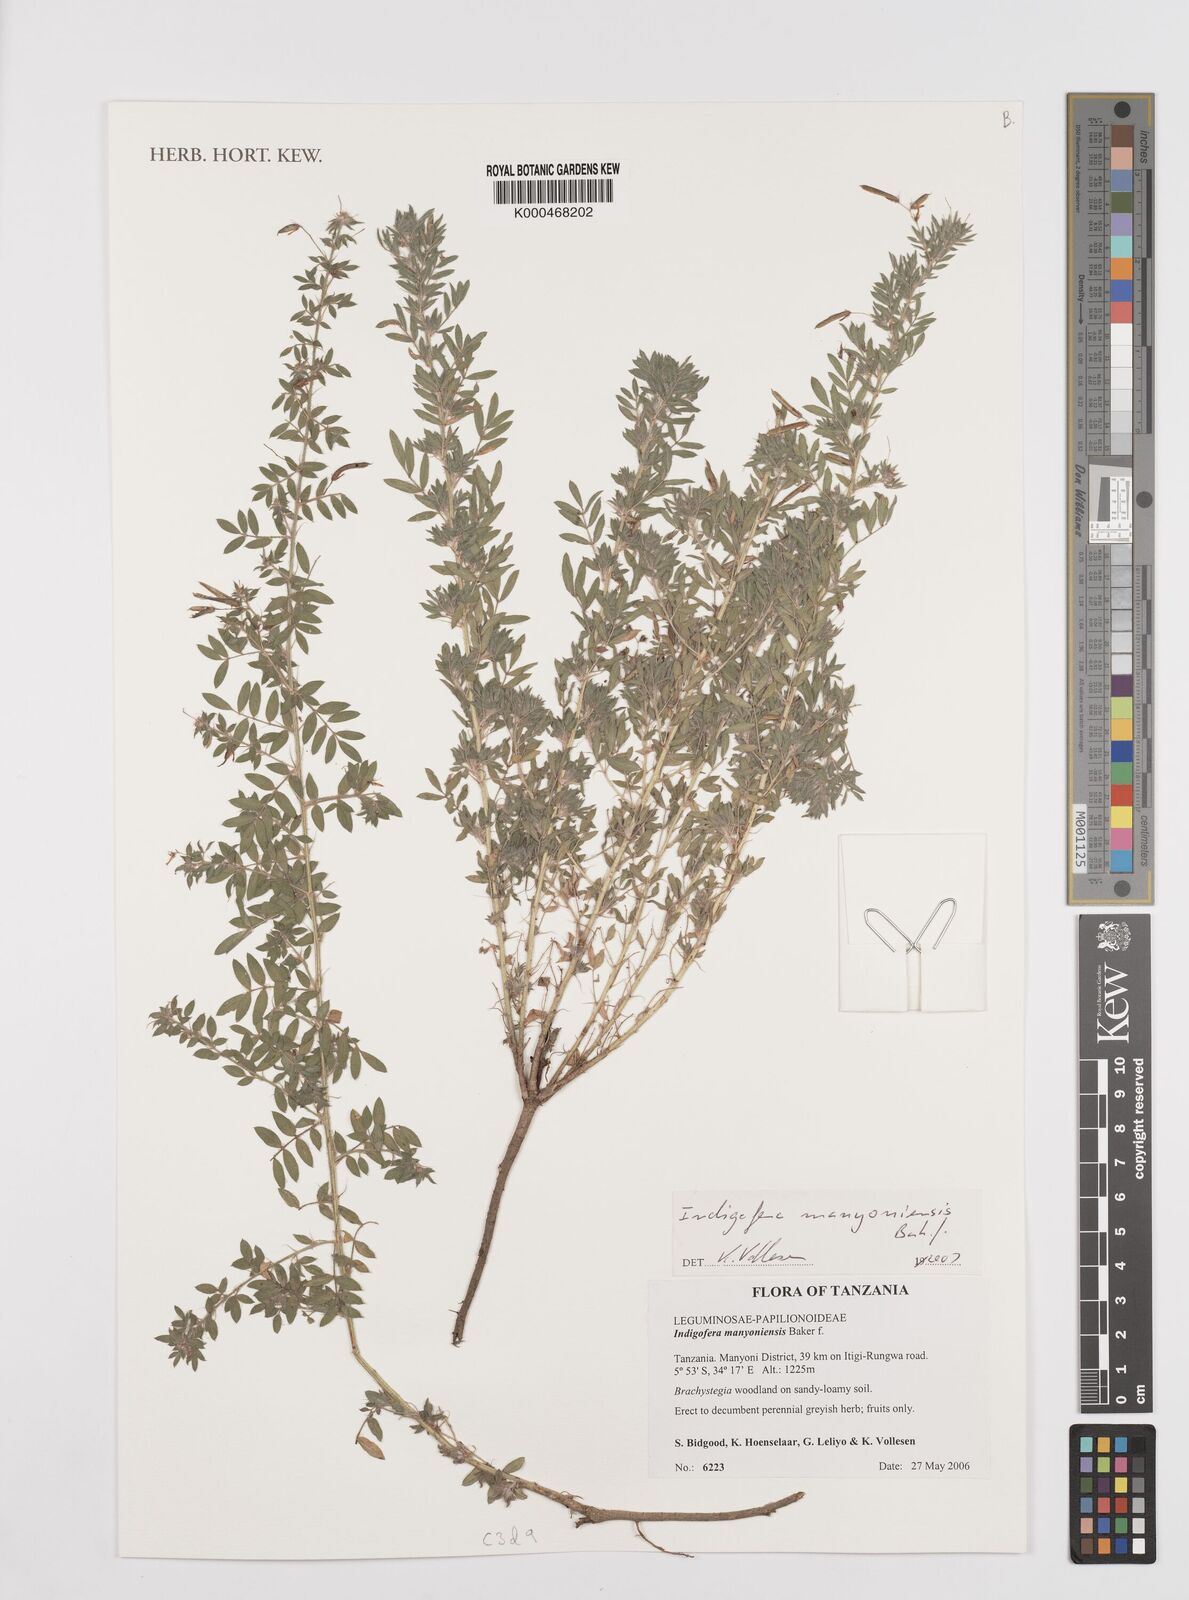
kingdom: Plantae
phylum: Tracheophyta
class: Magnoliopsida
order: Fabales
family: Fabaceae
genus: Indigofera
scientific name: Indigofera manyoniensis
